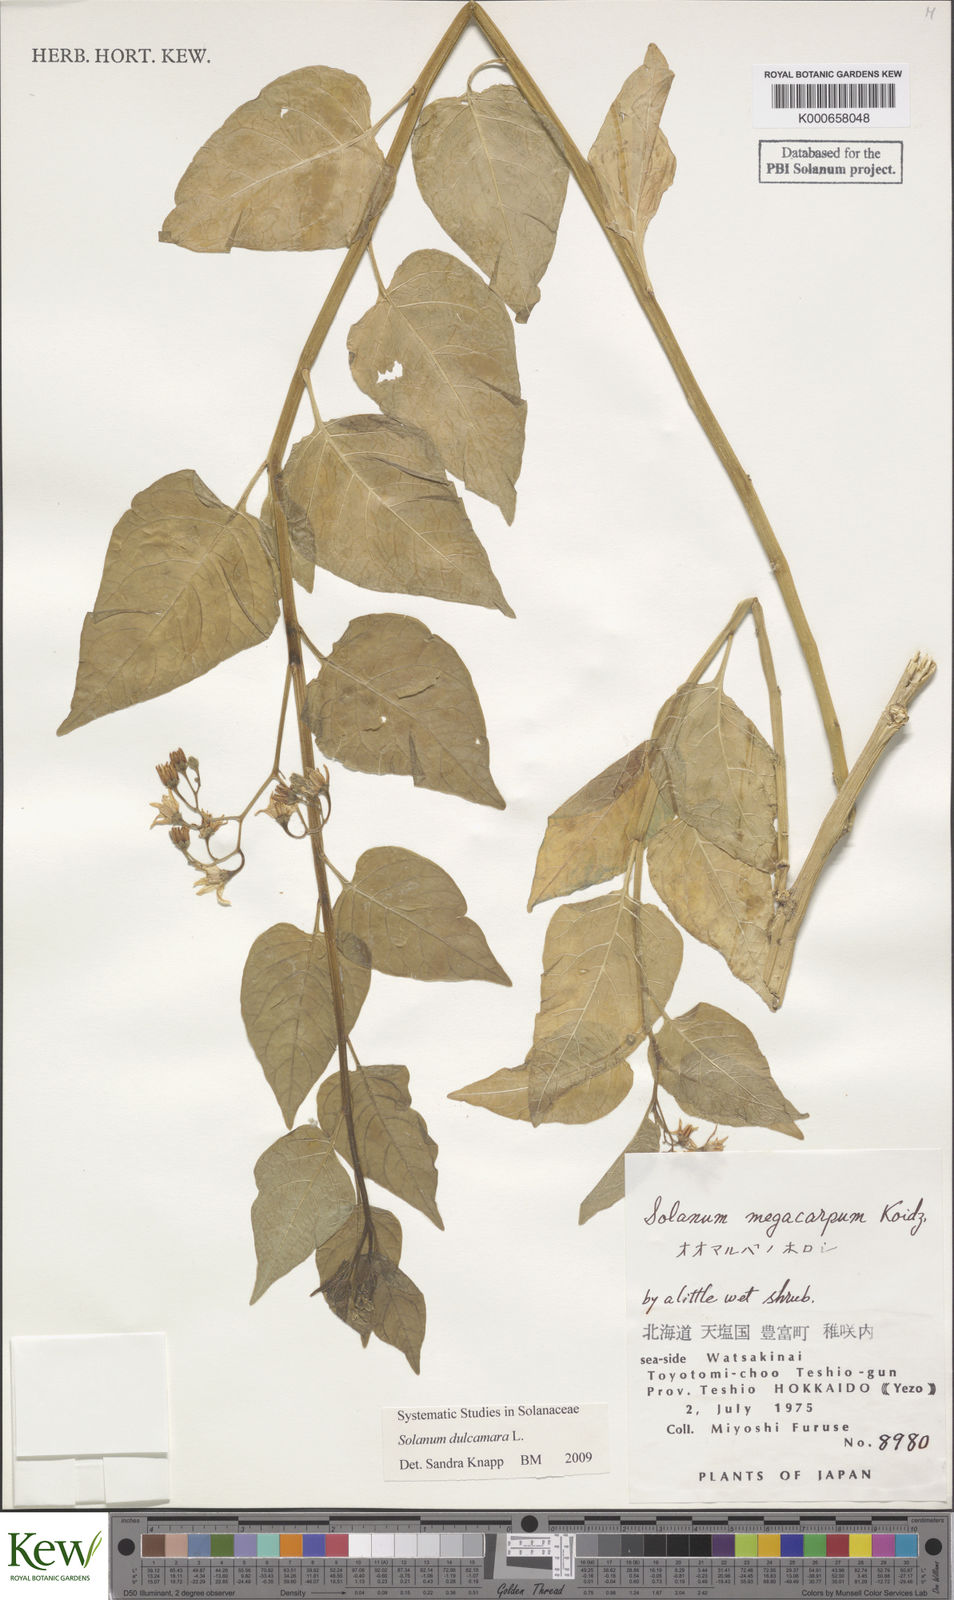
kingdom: Plantae
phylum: Tracheophyta
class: Magnoliopsida
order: Solanales
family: Solanaceae
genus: Solanum
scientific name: Solanum dulcamara
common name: Climbing nightshade
